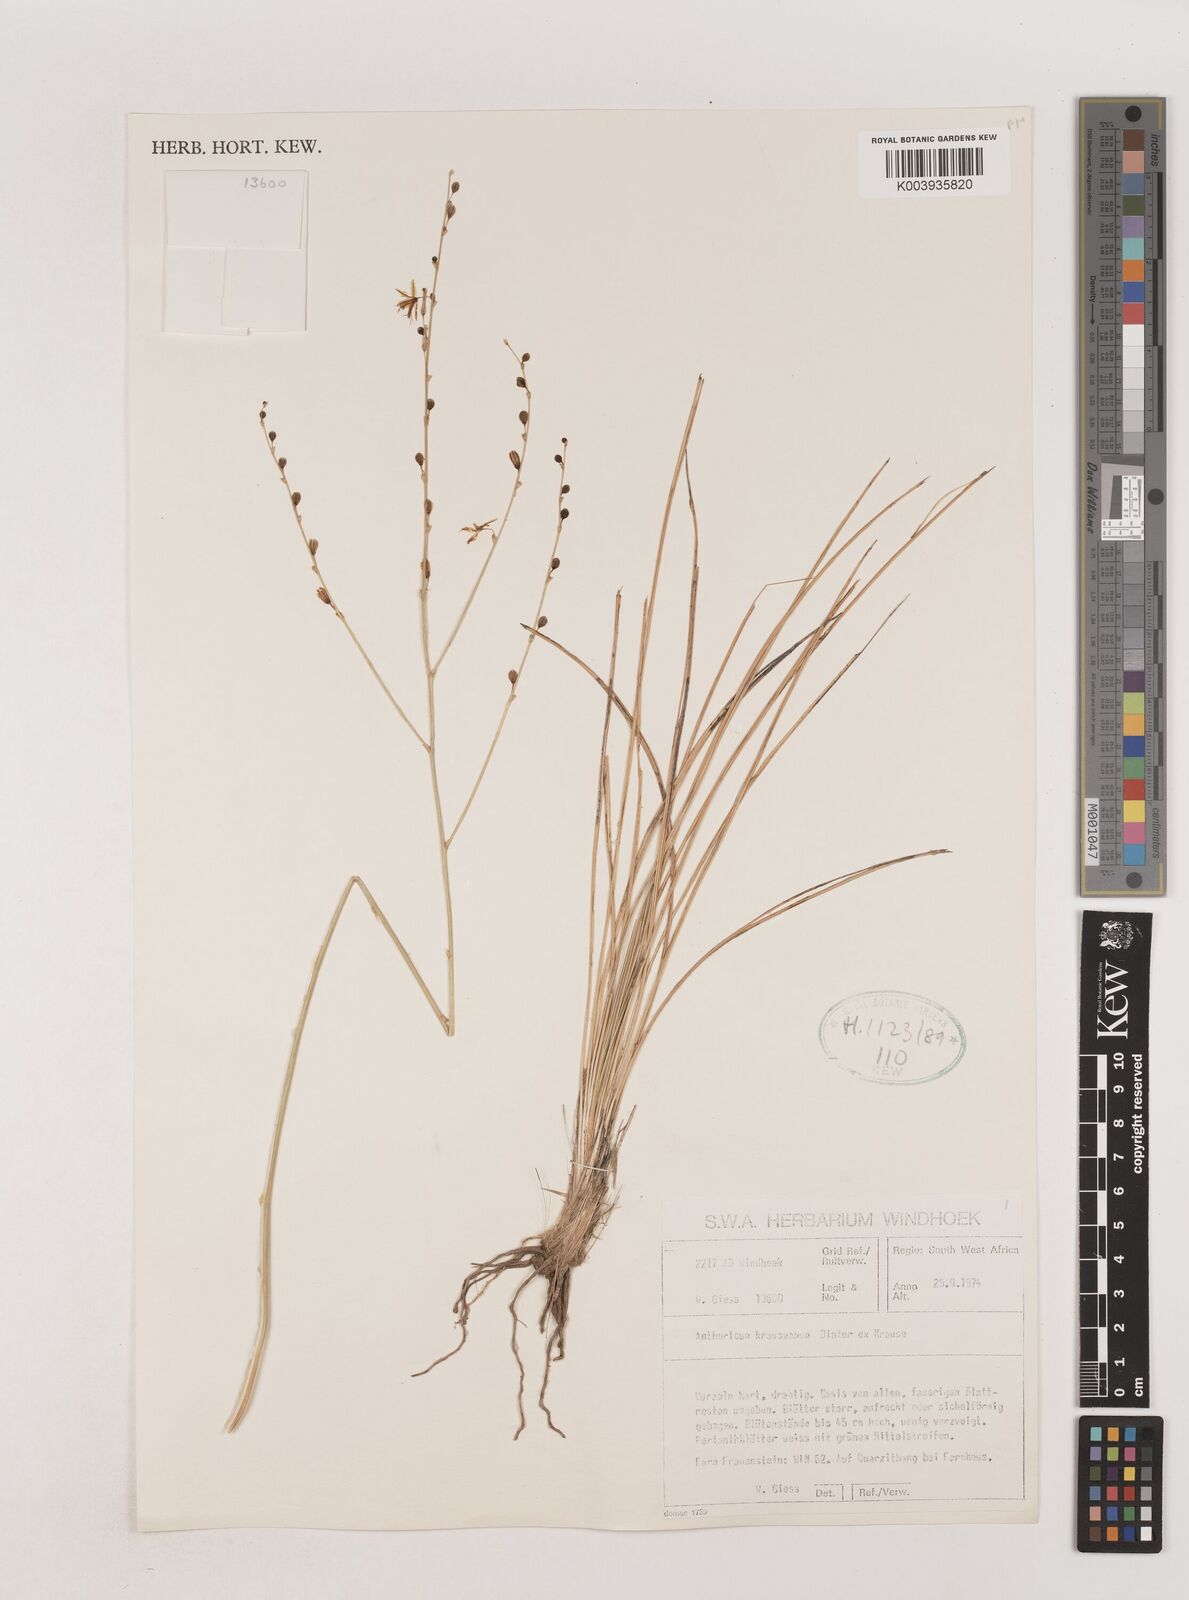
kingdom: Plantae
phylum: Tracheophyta
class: Liliopsida
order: Asparagales
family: Asparagaceae
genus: Chlorophytum
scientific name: Chlorophytum krauseanum
